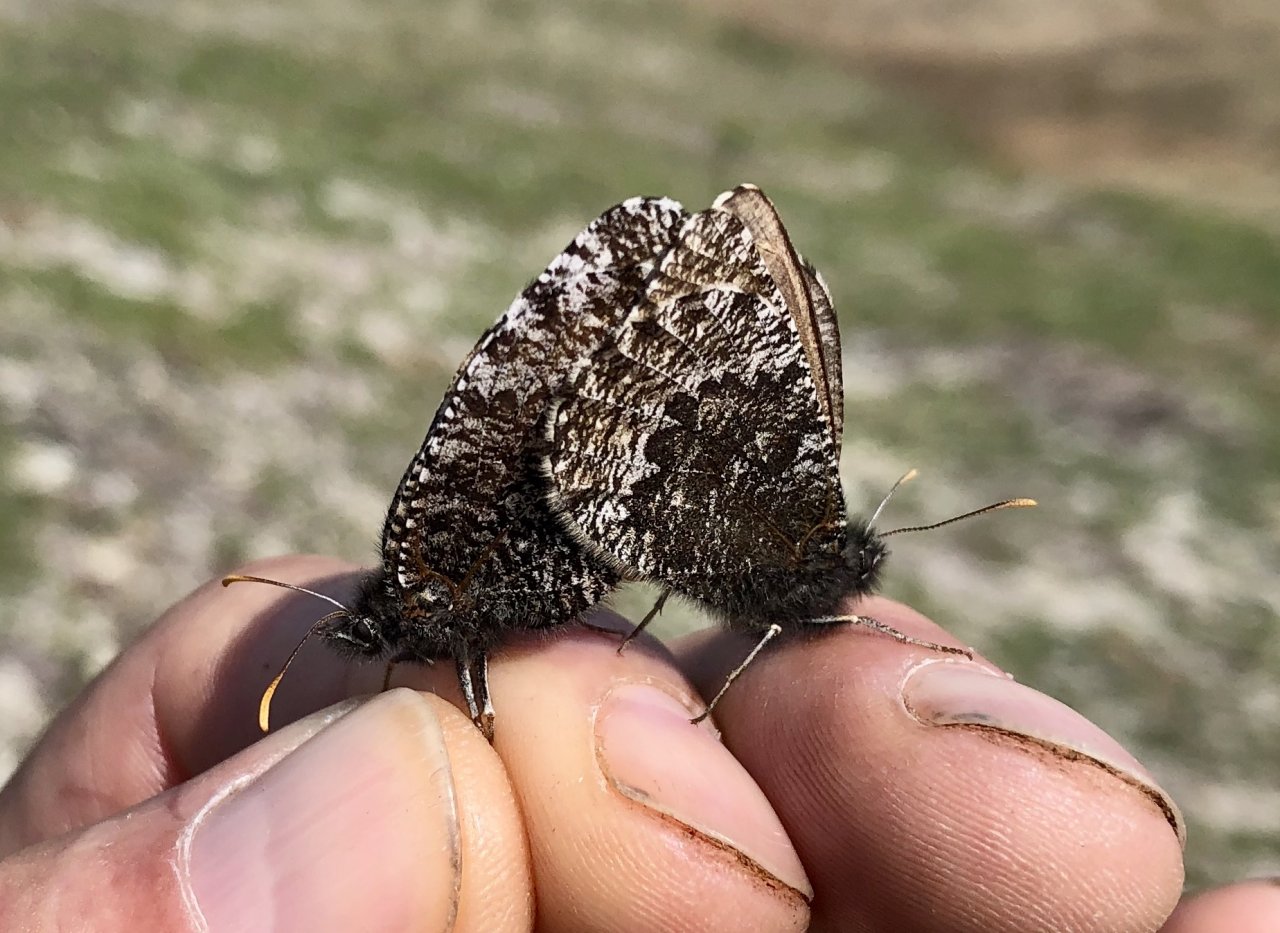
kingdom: Animalia
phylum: Arthropoda
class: Insecta
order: Lepidoptera
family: Nymphalidae
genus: Oeneis
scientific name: Oeneis melissa
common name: Melissa Arctic
